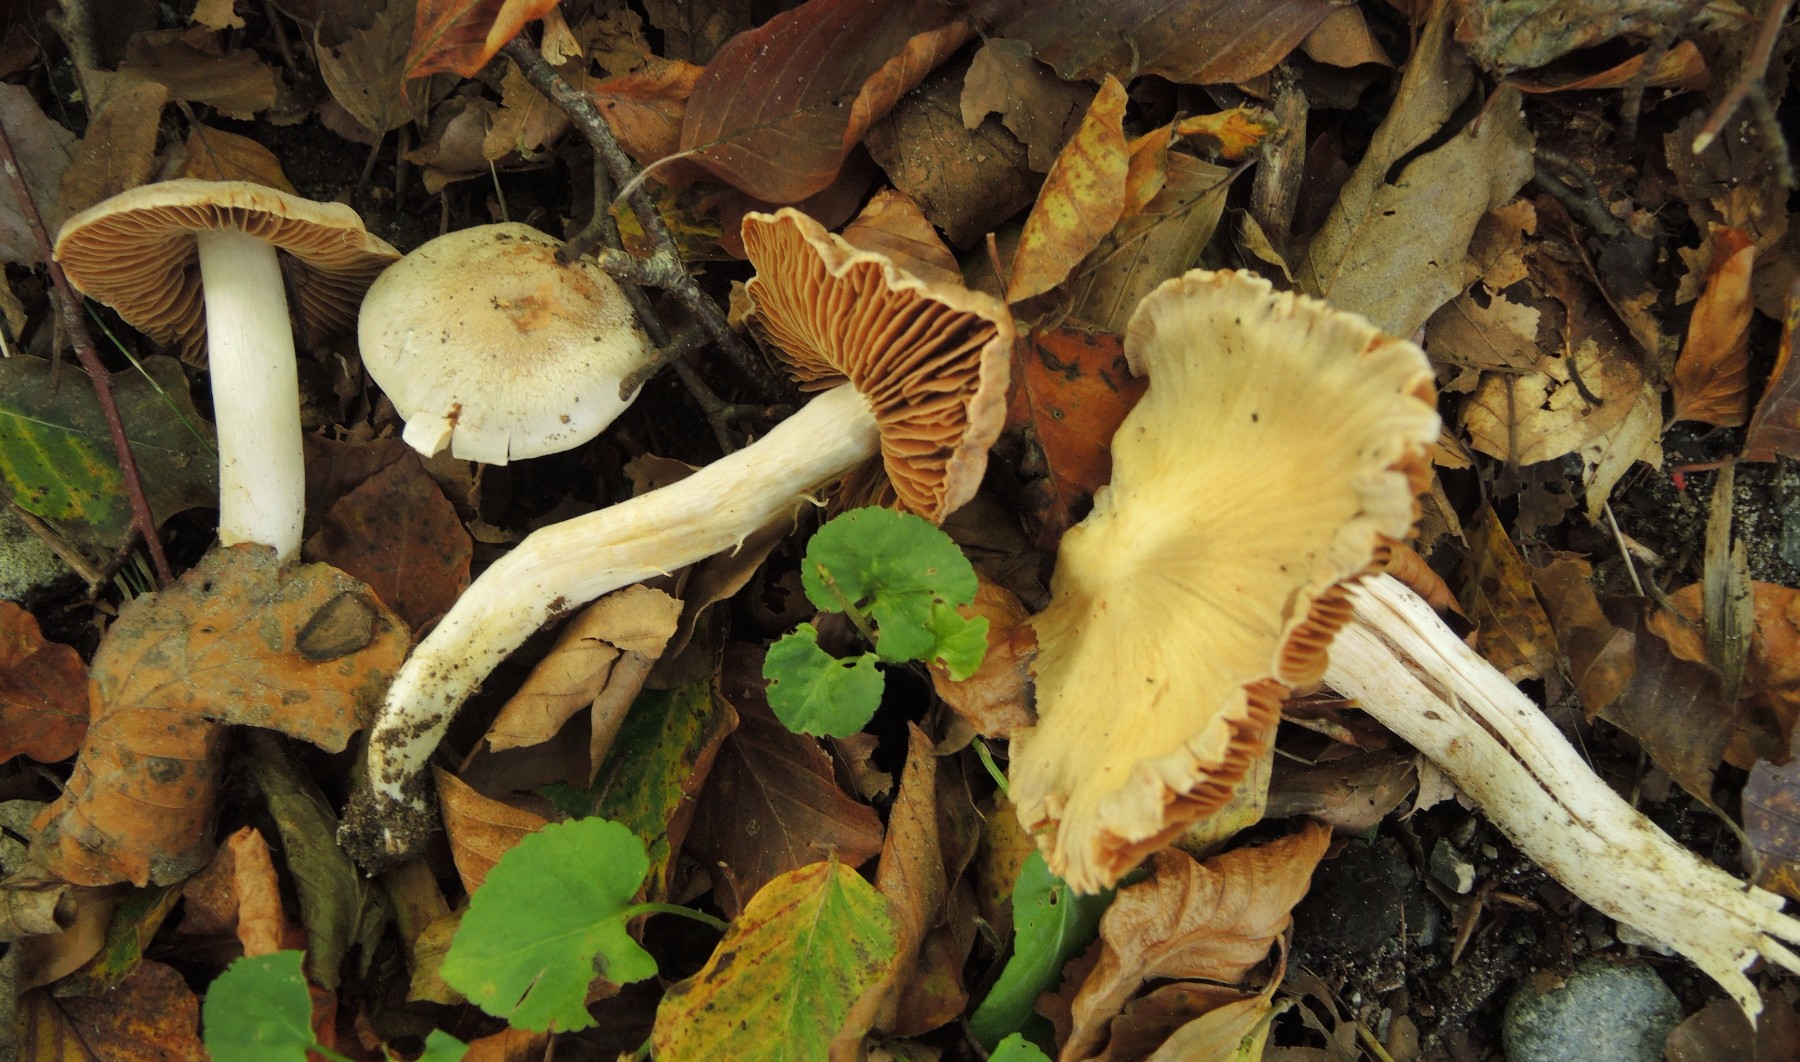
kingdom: Fungi
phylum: Basidiomycota
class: Agaricomycetes
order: Agaricales
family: Cortinariaceae
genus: Cortinarius
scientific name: Cortinarius acetosus
